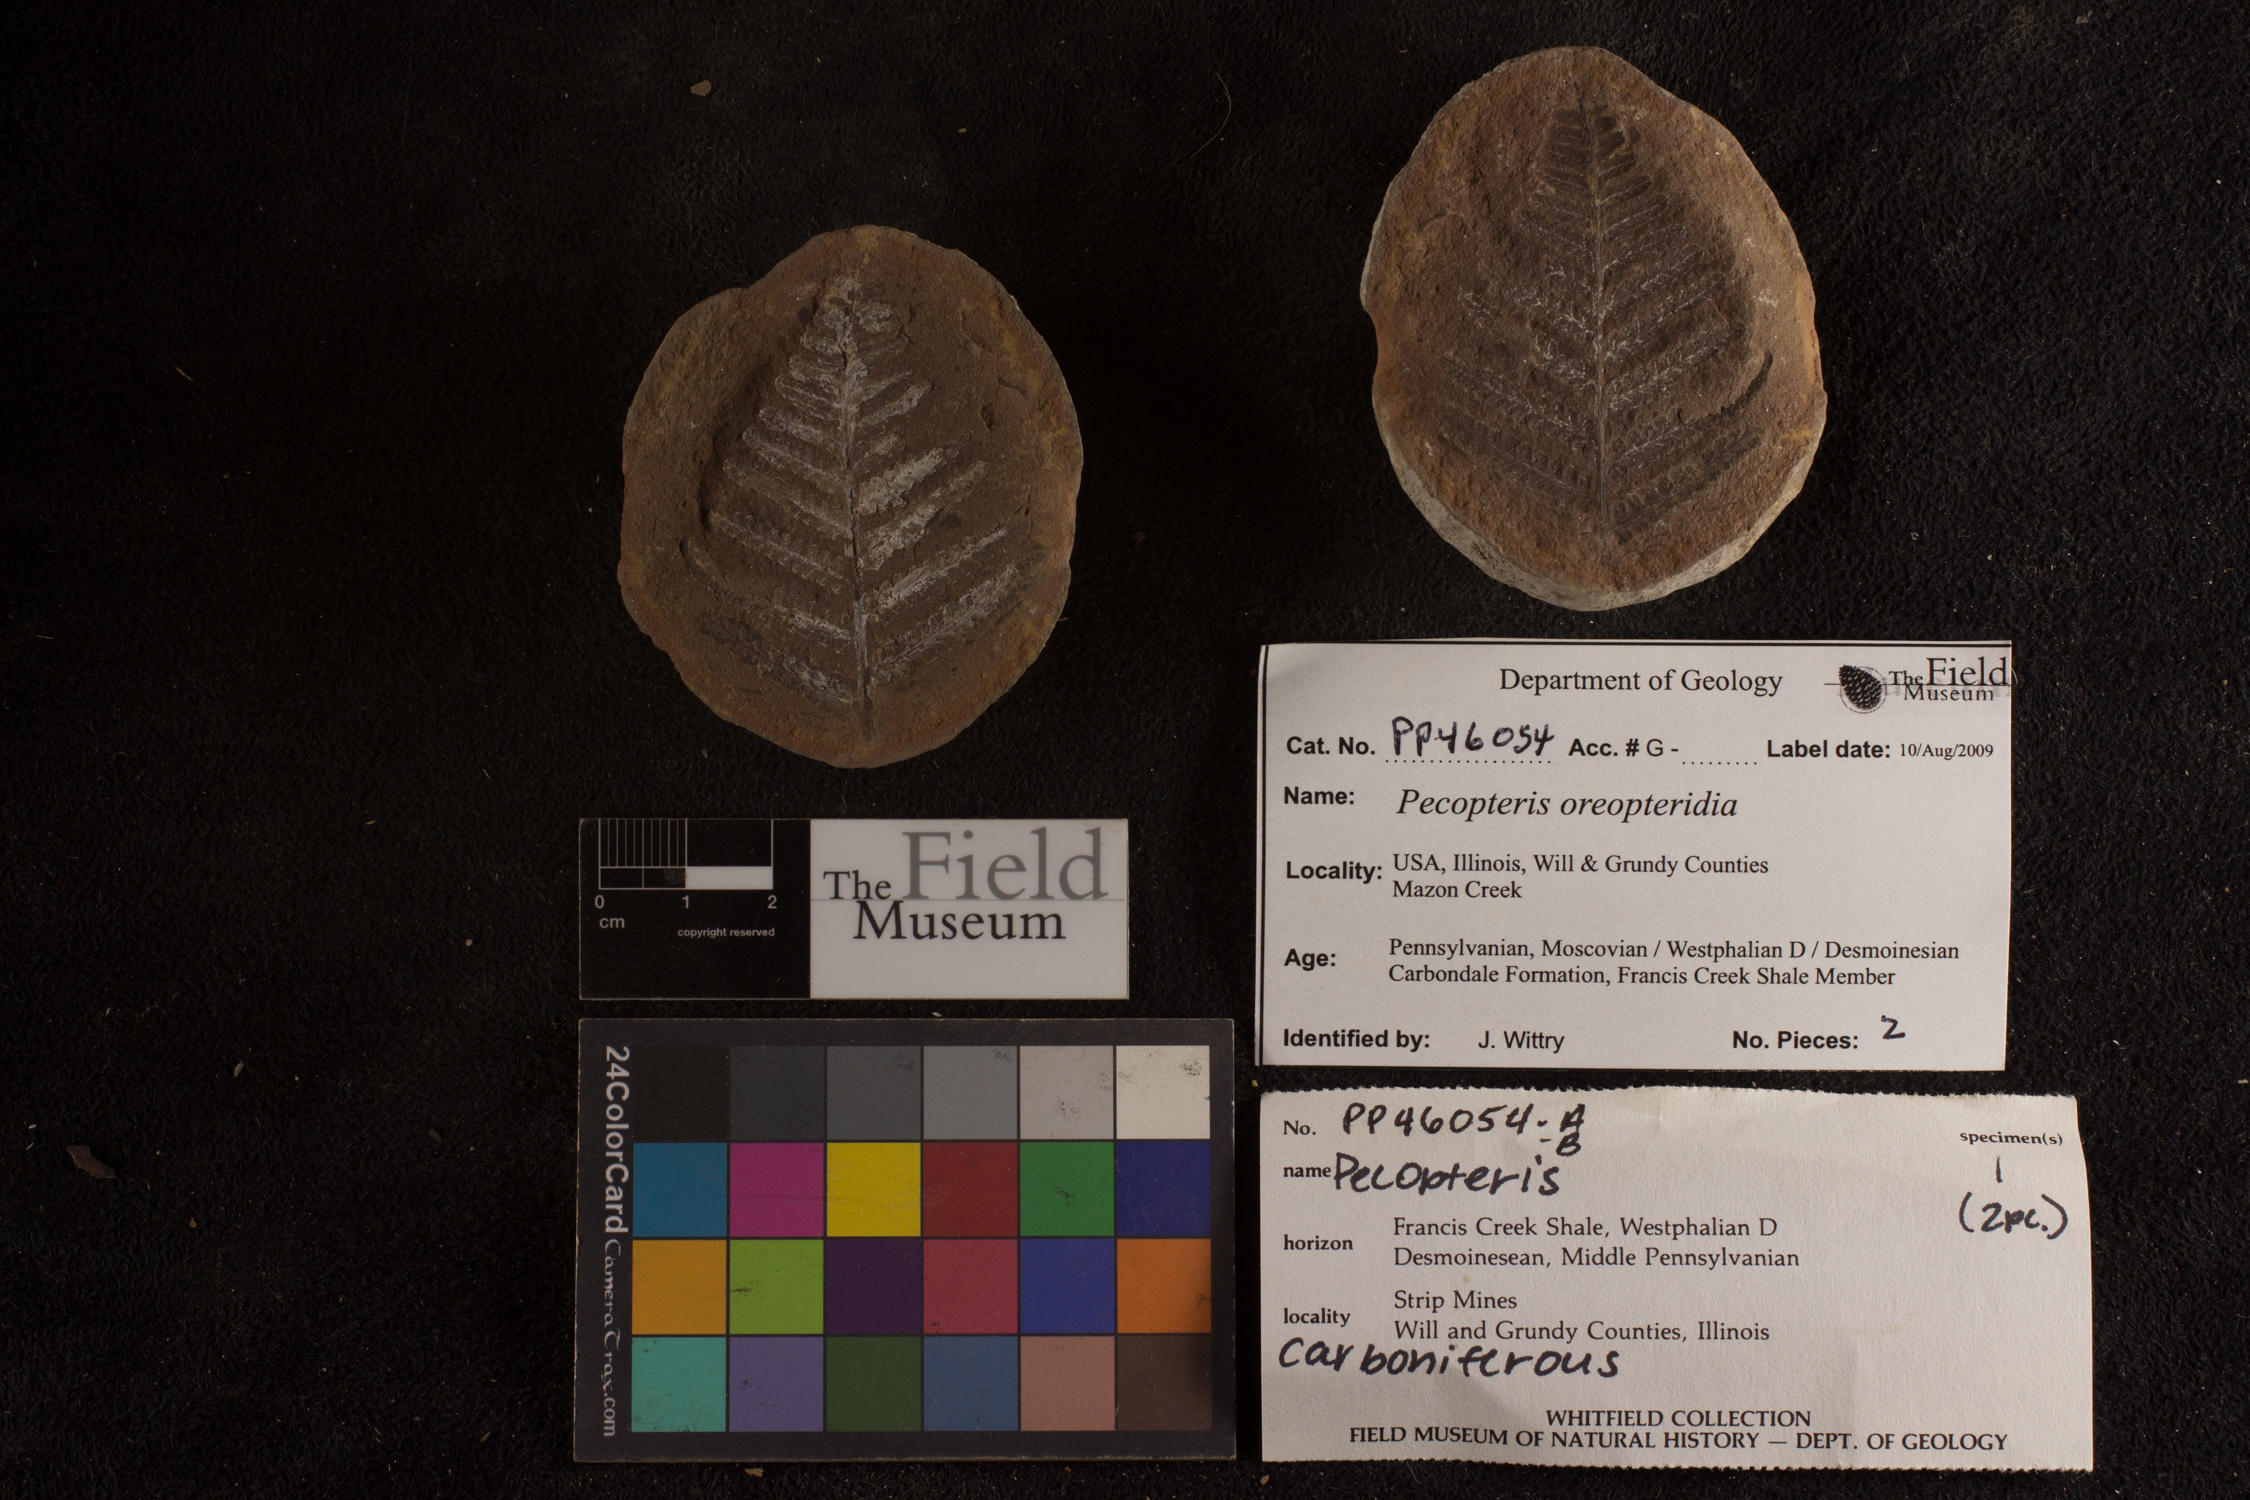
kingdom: Plantae
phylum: Tracheophyta
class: Polypodiopsida
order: Marattiales
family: Asterothecaceae
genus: Pecopteris
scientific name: Pecopteris
